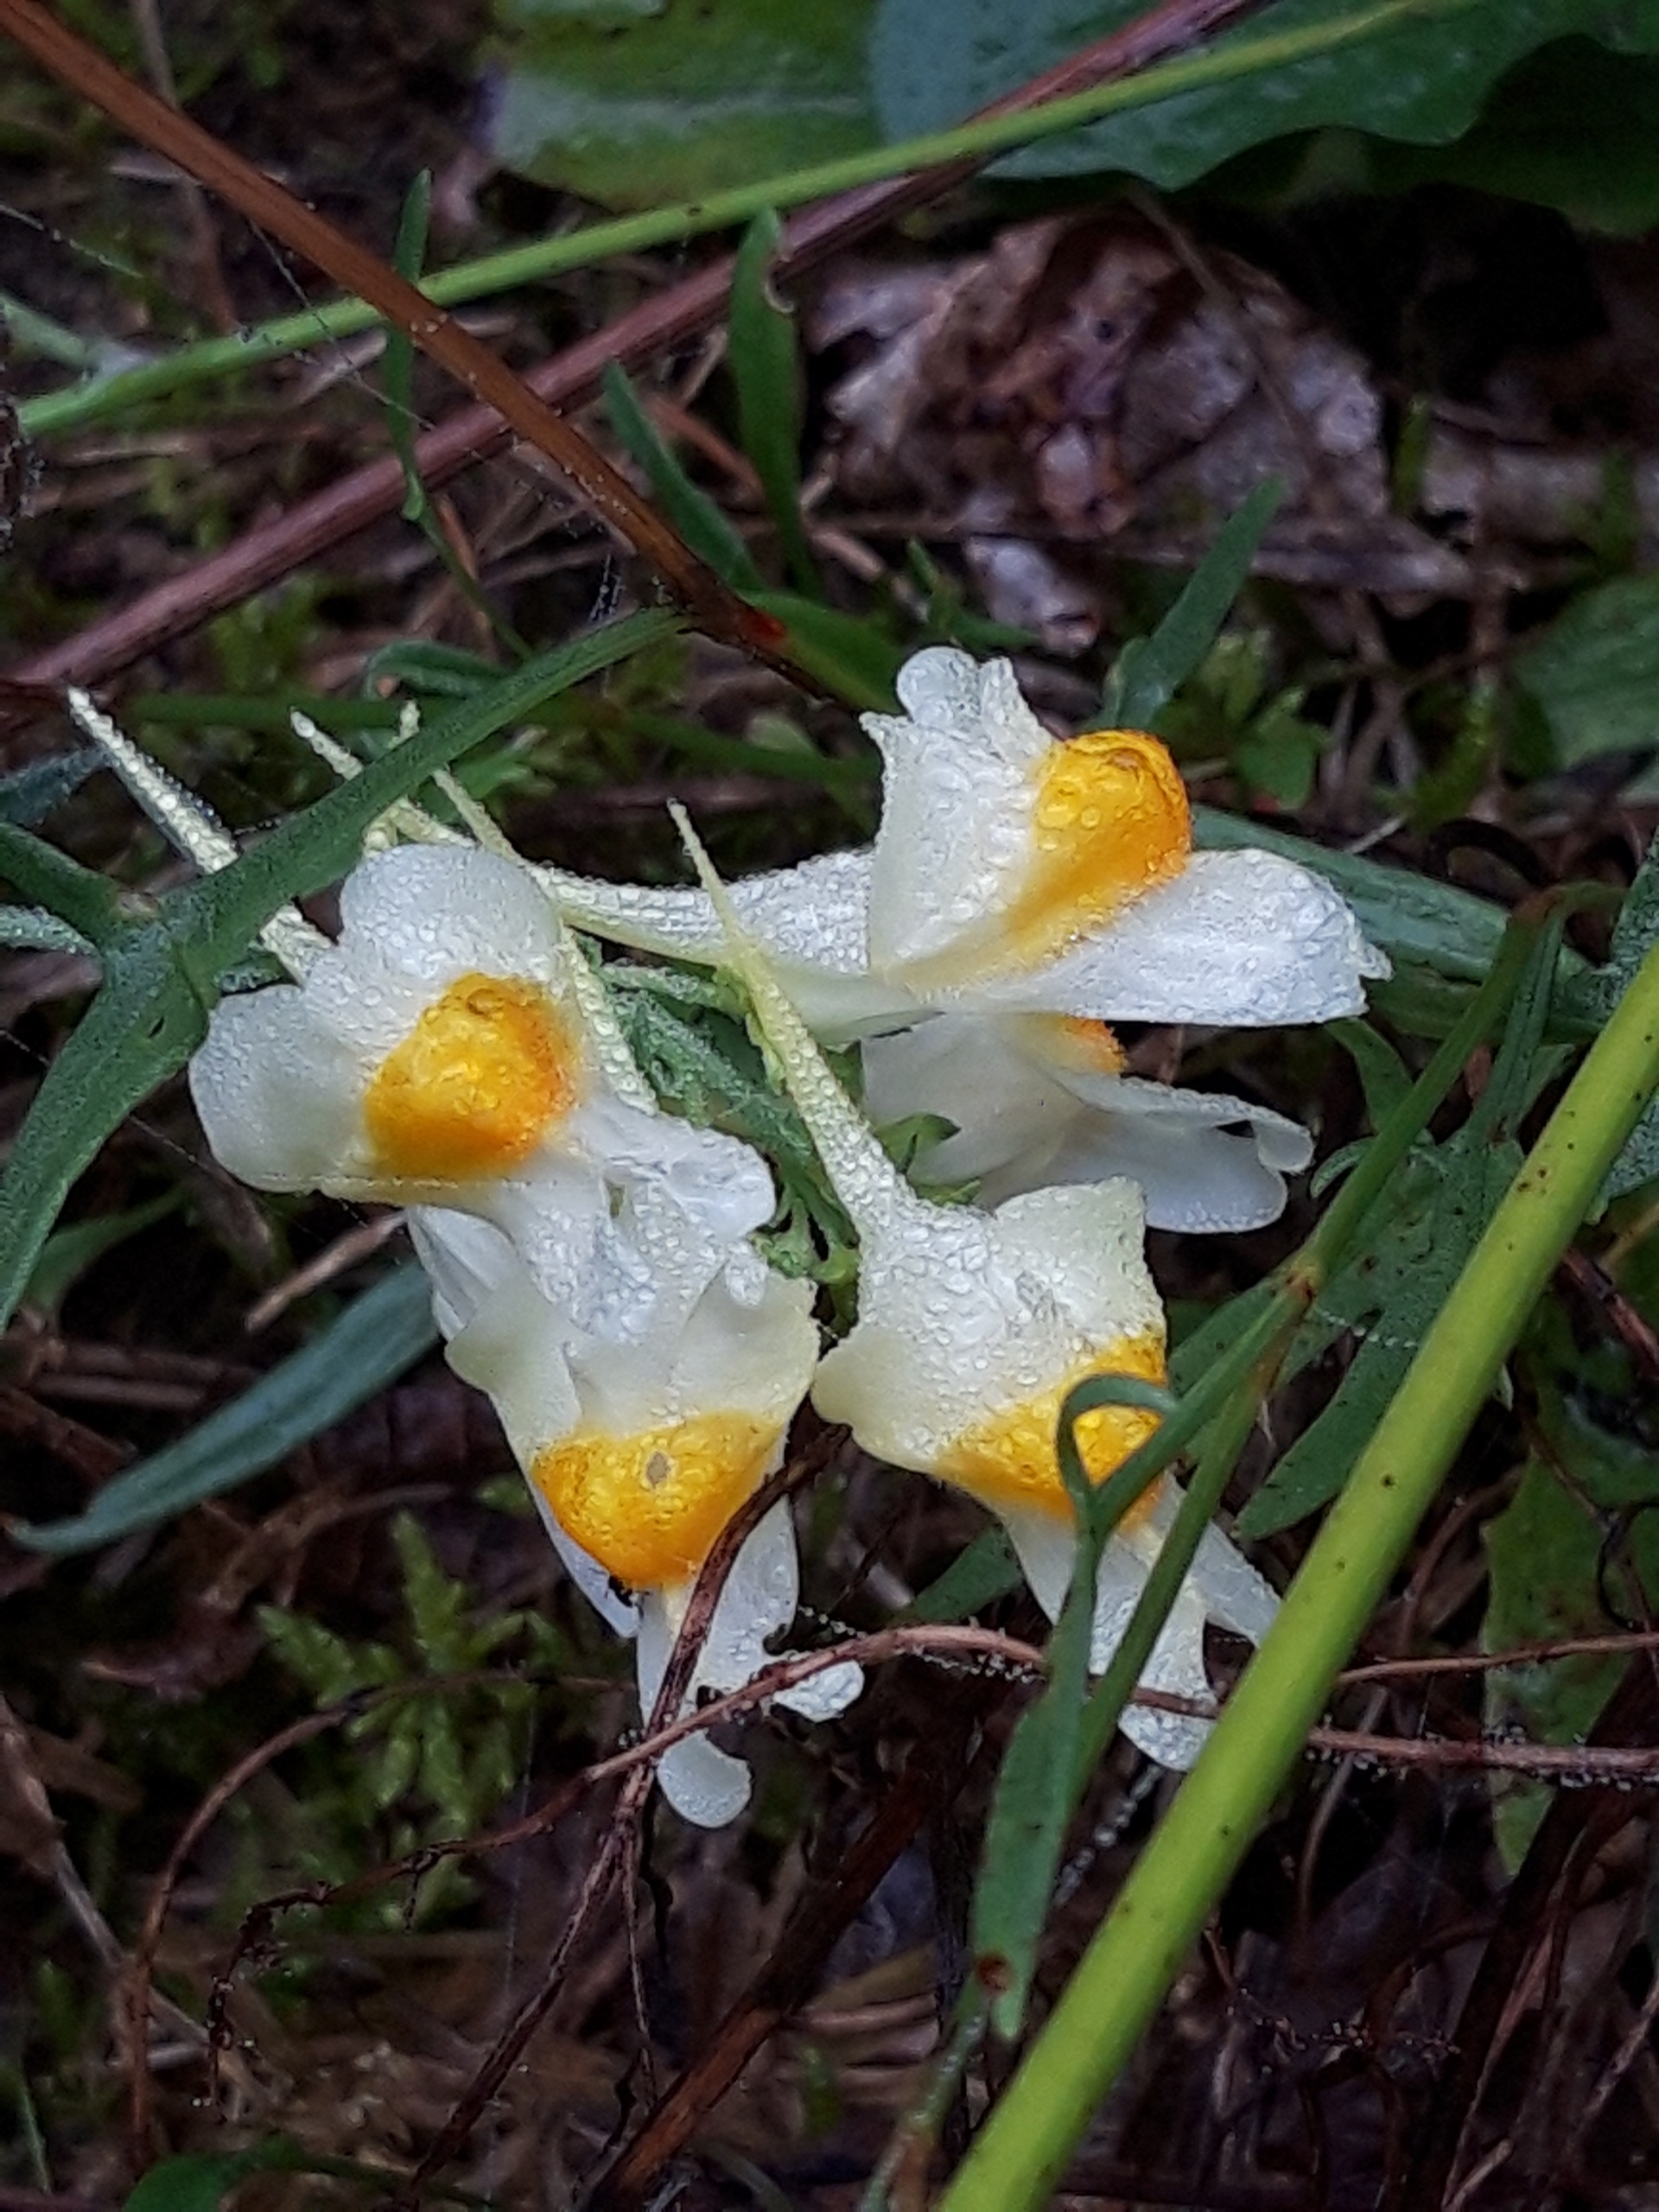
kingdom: Plantae
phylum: Tracheophyta
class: Magnoliopsida
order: Lamiales
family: Plantaginaceae
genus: Linaria
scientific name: Linaria vulgaris
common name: Almindelig torskemund
